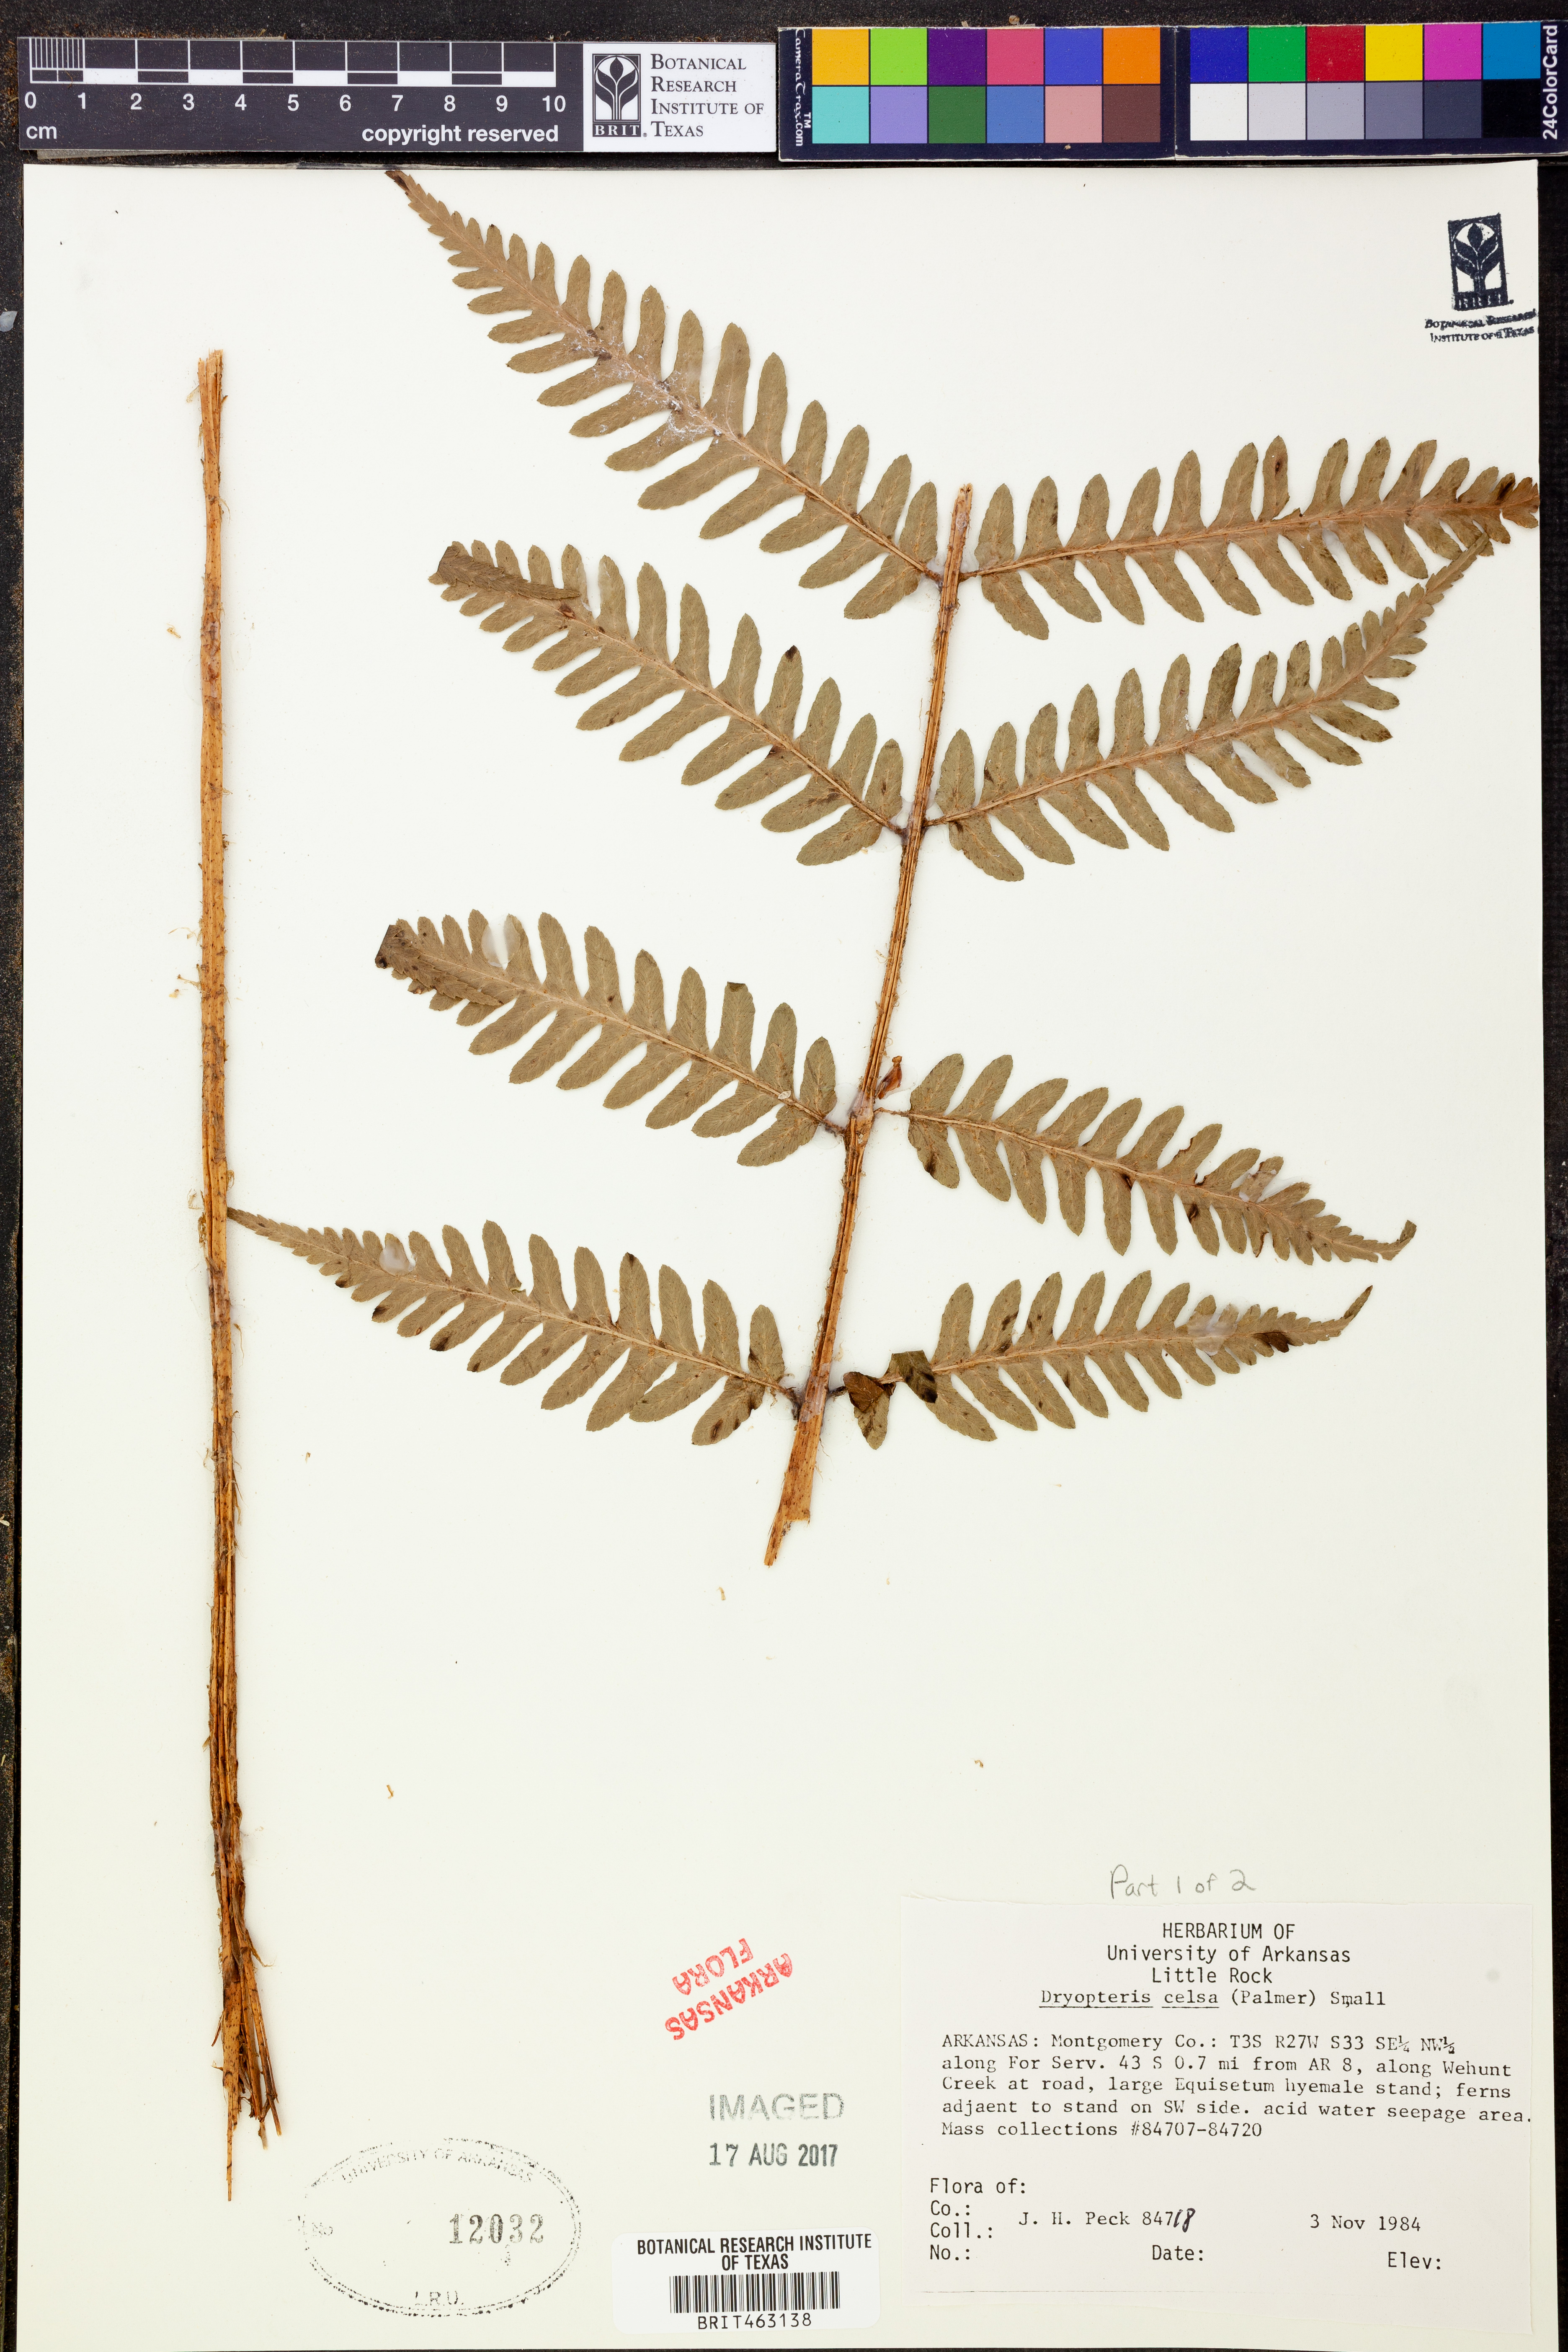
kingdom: Plantae
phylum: Tracheophyta
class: Polypodiopsida
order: Polypodiales
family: Dryopteridaceae
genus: Dryopteris
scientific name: Dryopteris celsa
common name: Log fern
